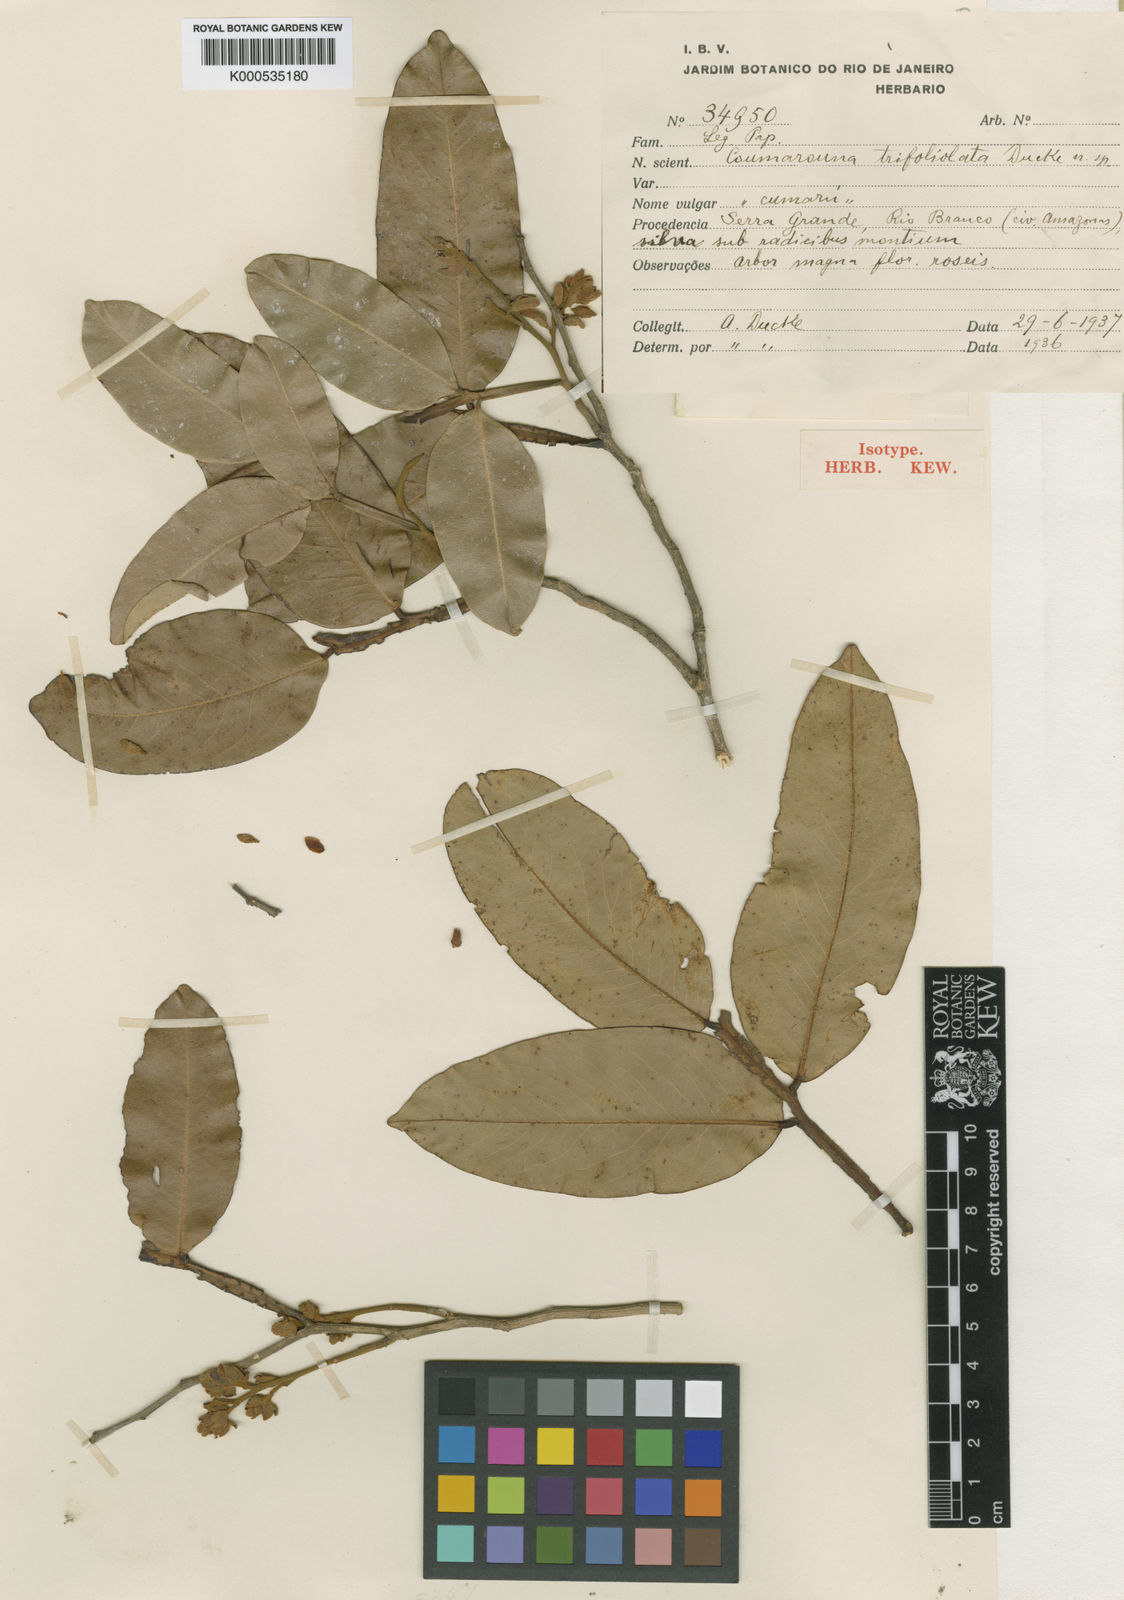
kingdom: Plantae
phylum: Tracheophyta
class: Magnoliopsida
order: Fabales
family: Fabaceae
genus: Dipteryx
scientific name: Dipteryx punctata
